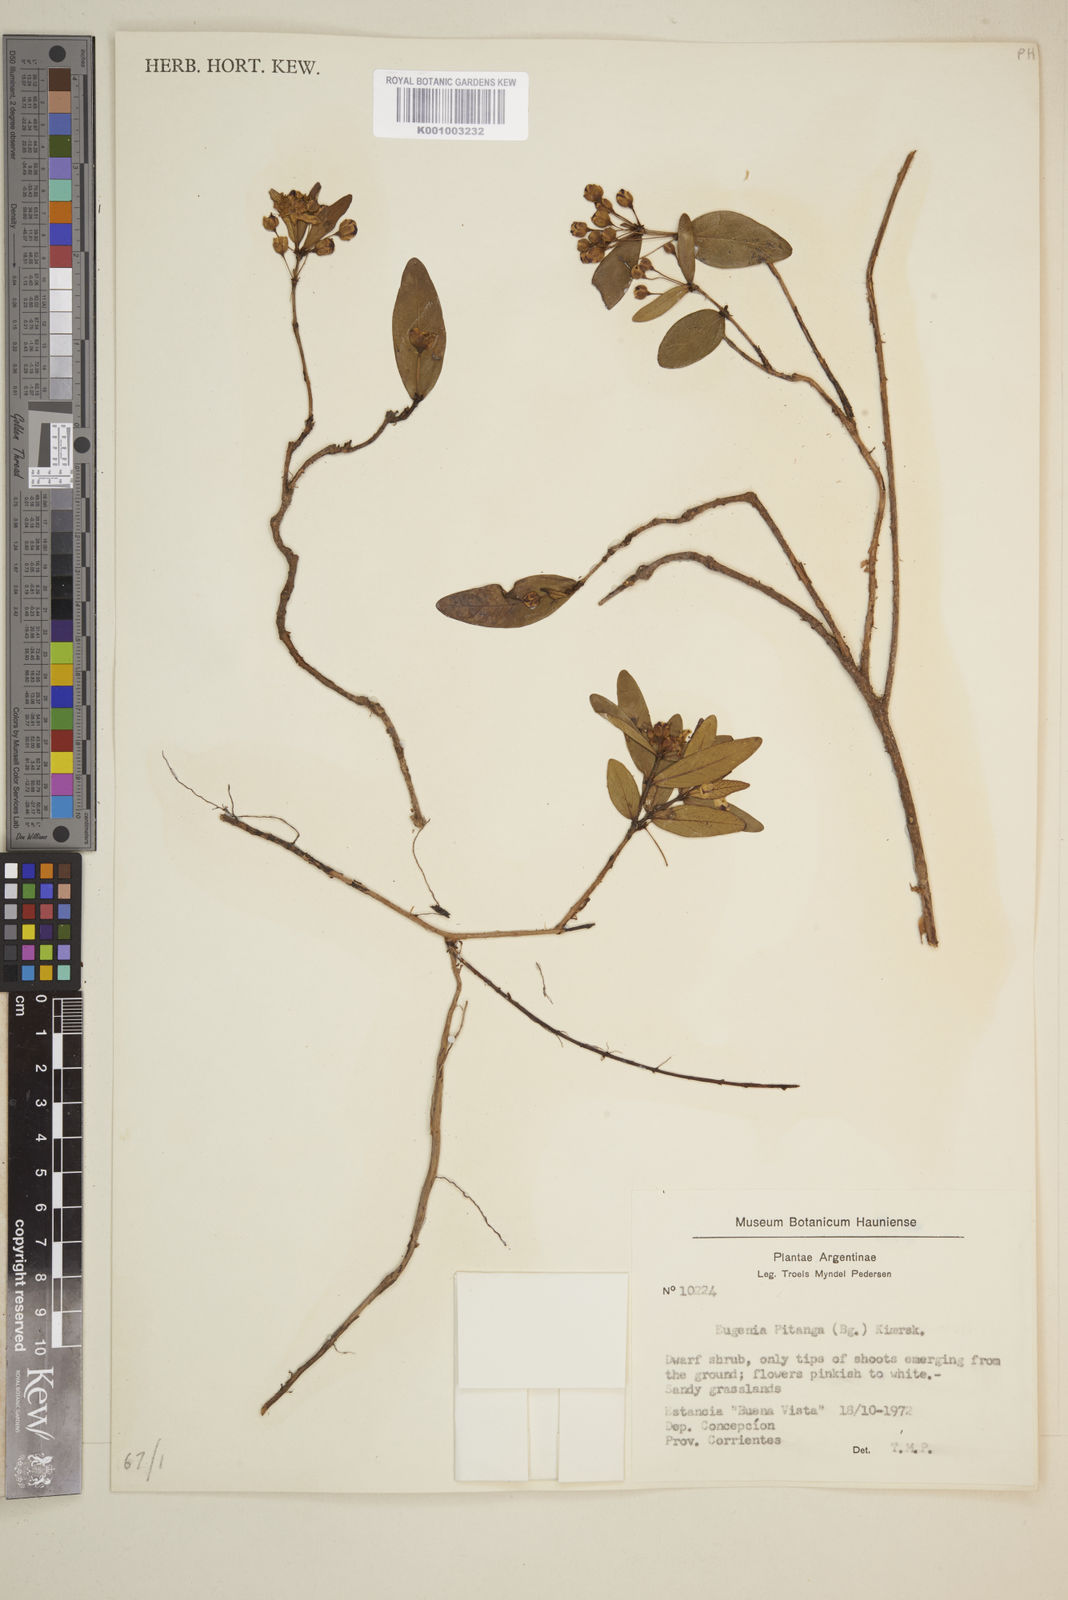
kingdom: Plantae
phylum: Tracheophyta
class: Magnoliopsida
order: Myrtales
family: Myrtaceae
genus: Eugenia
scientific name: Eugenia pitanga
